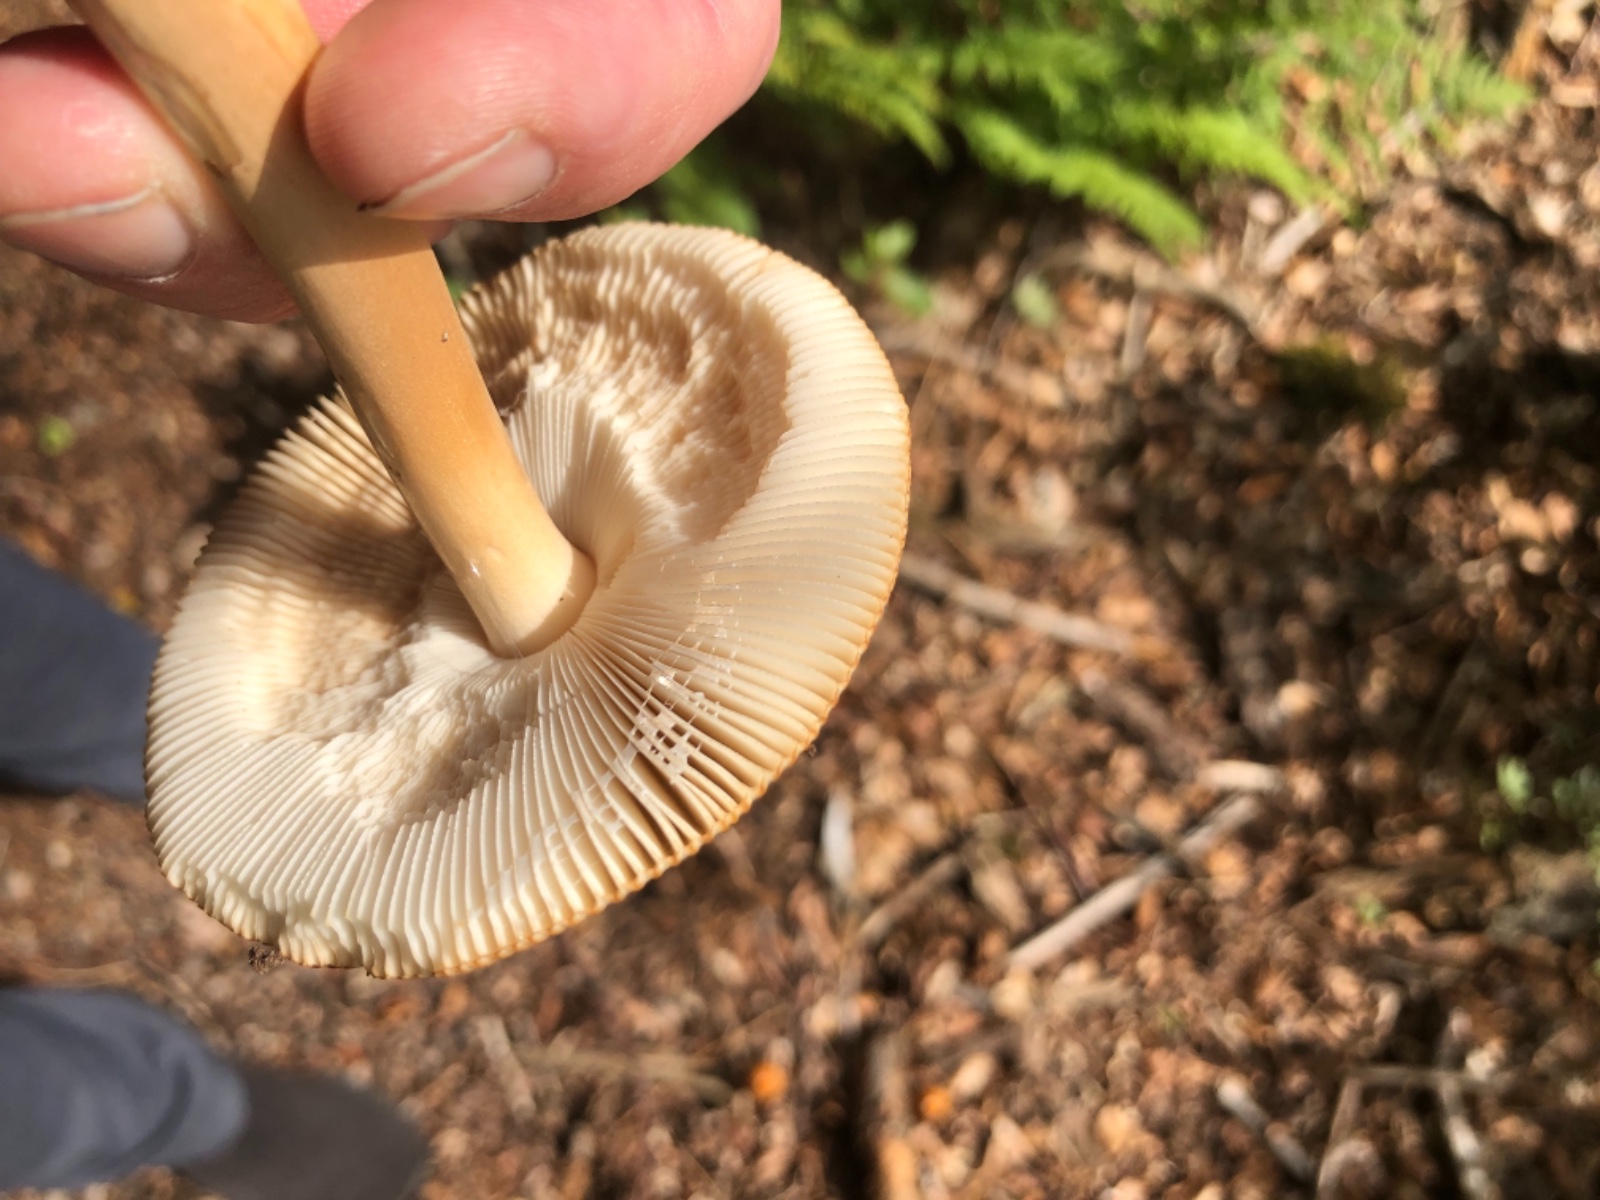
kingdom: Fungi
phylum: Basidiomycota
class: Agaricomycetes
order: Agaricales
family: Amanitaceae
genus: Amanita
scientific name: Amanita fulva
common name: brun kam-fluesvamp
